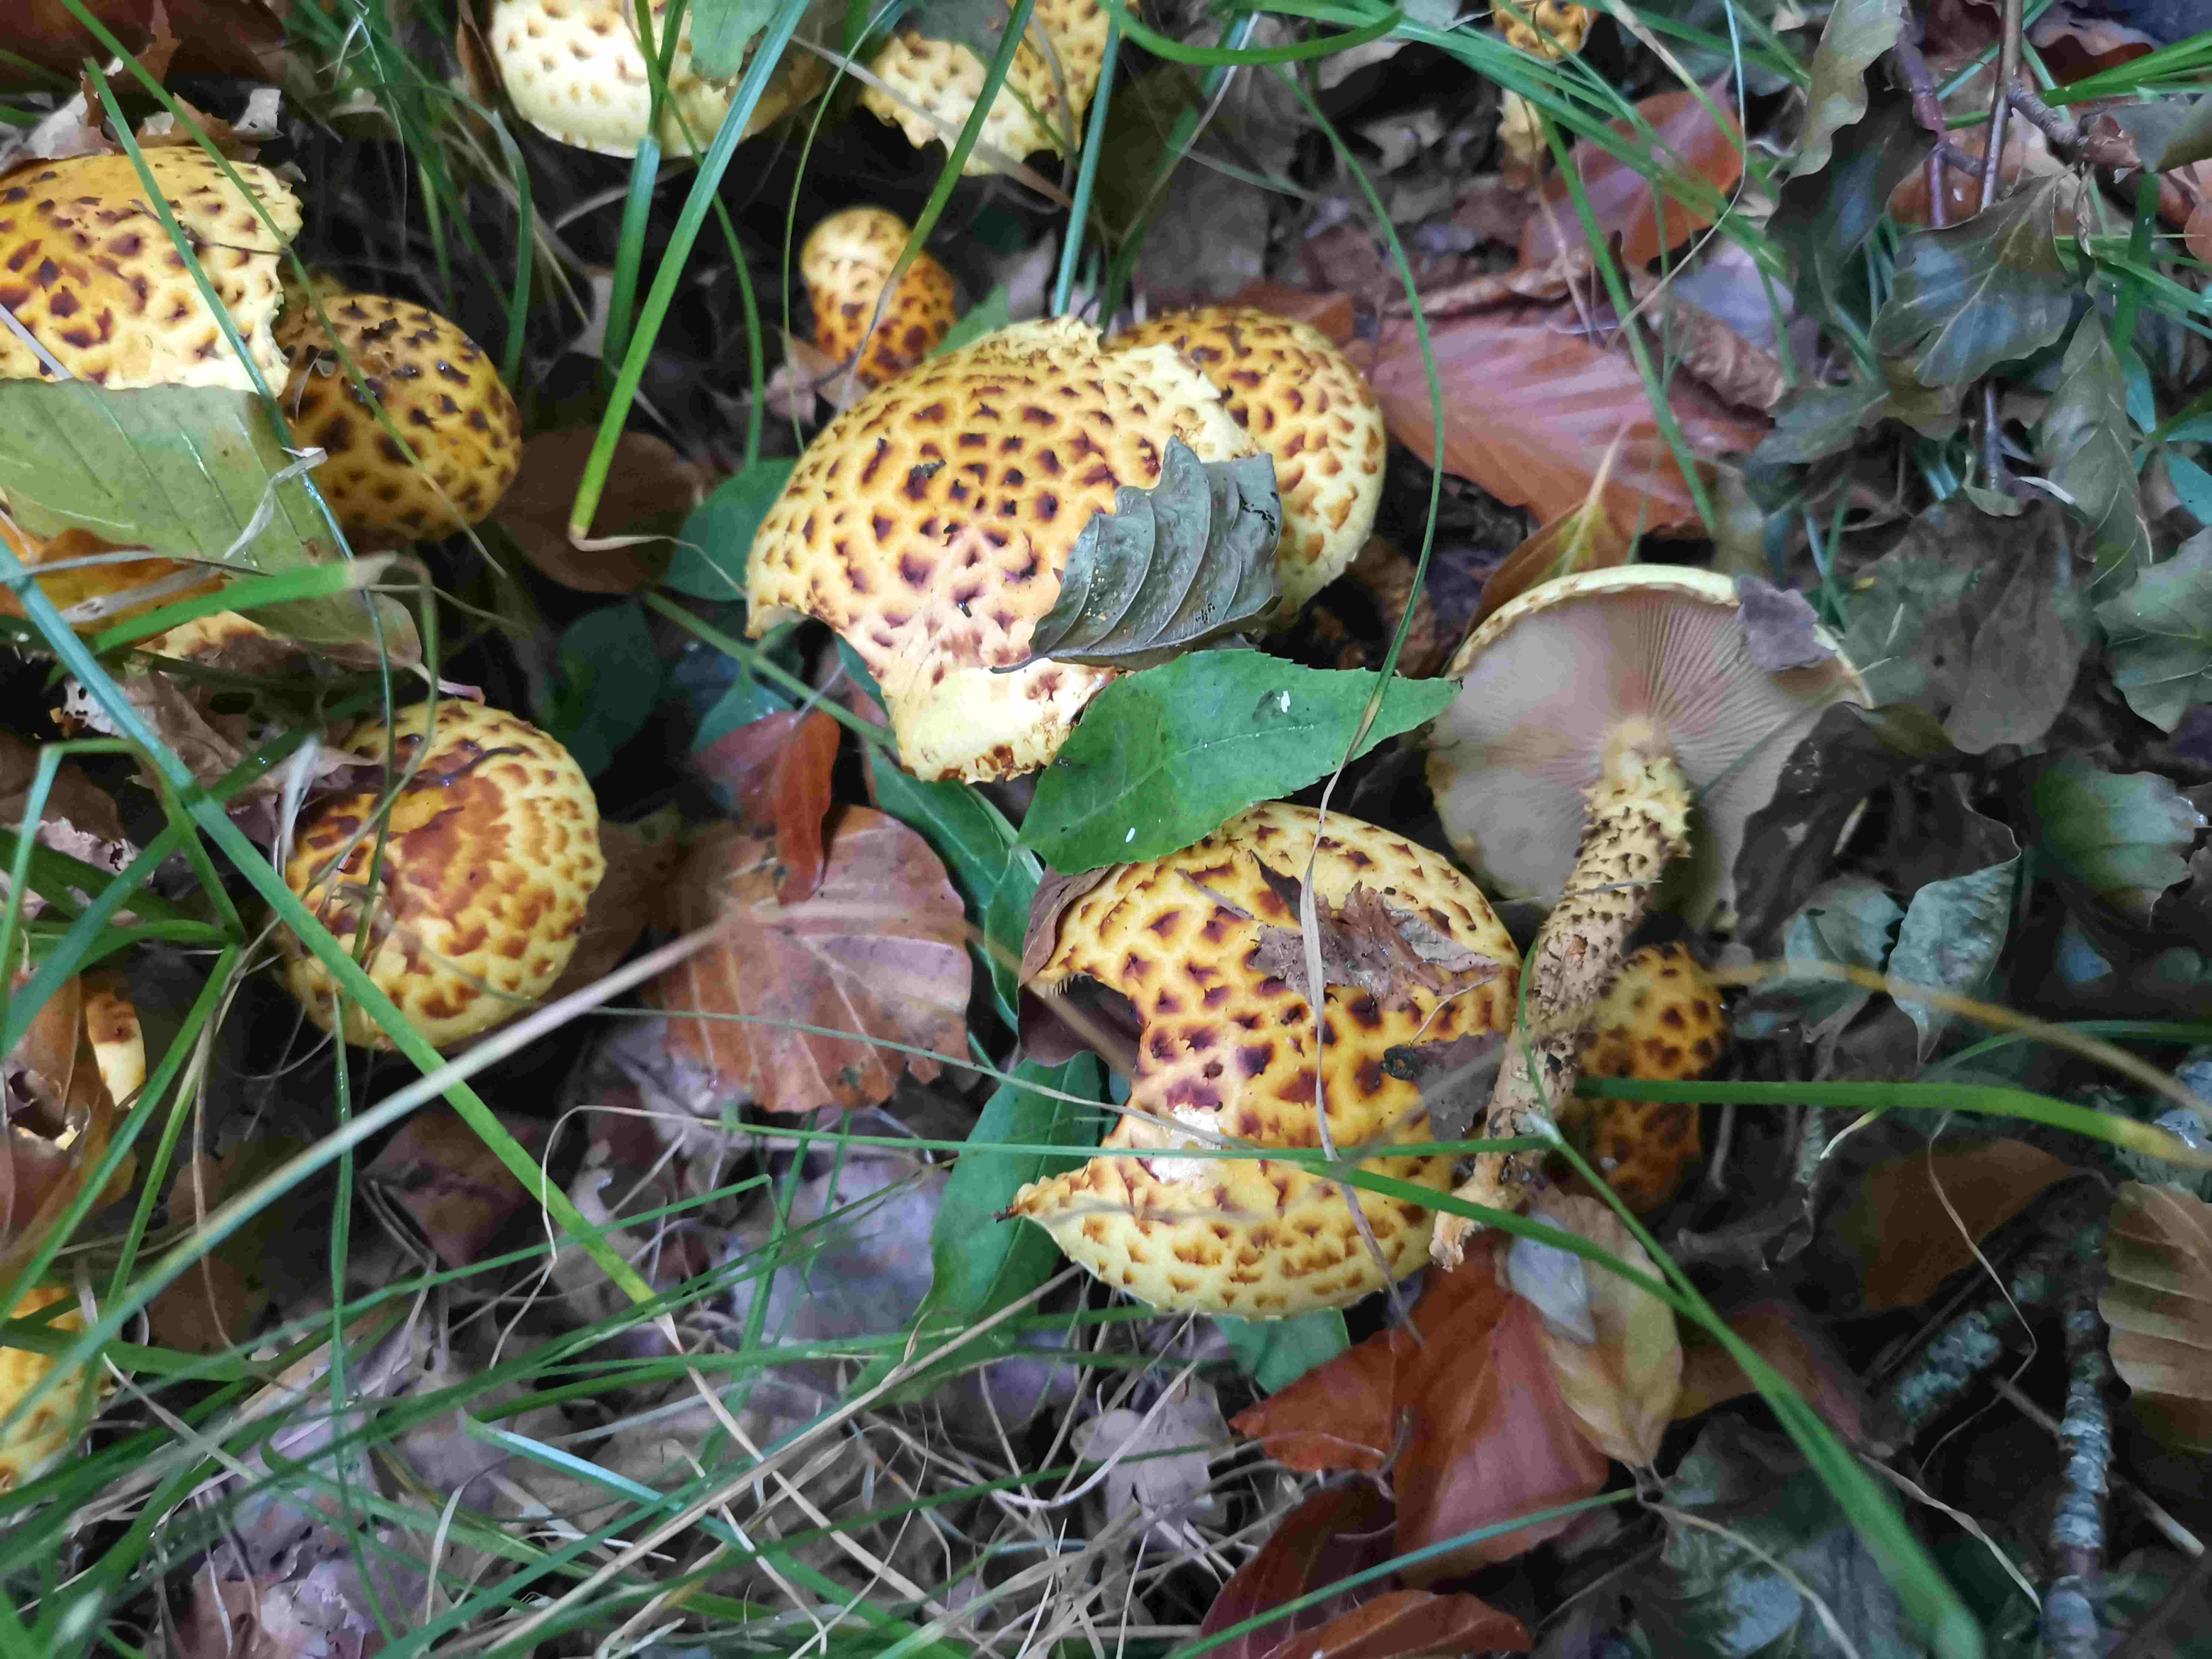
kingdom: Fungi
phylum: Basidiomycota
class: Agaricomycetes
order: Agaricales
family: Strophariaceae
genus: Pholiota
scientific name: Pholiota jahnii
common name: slimet skælhat
